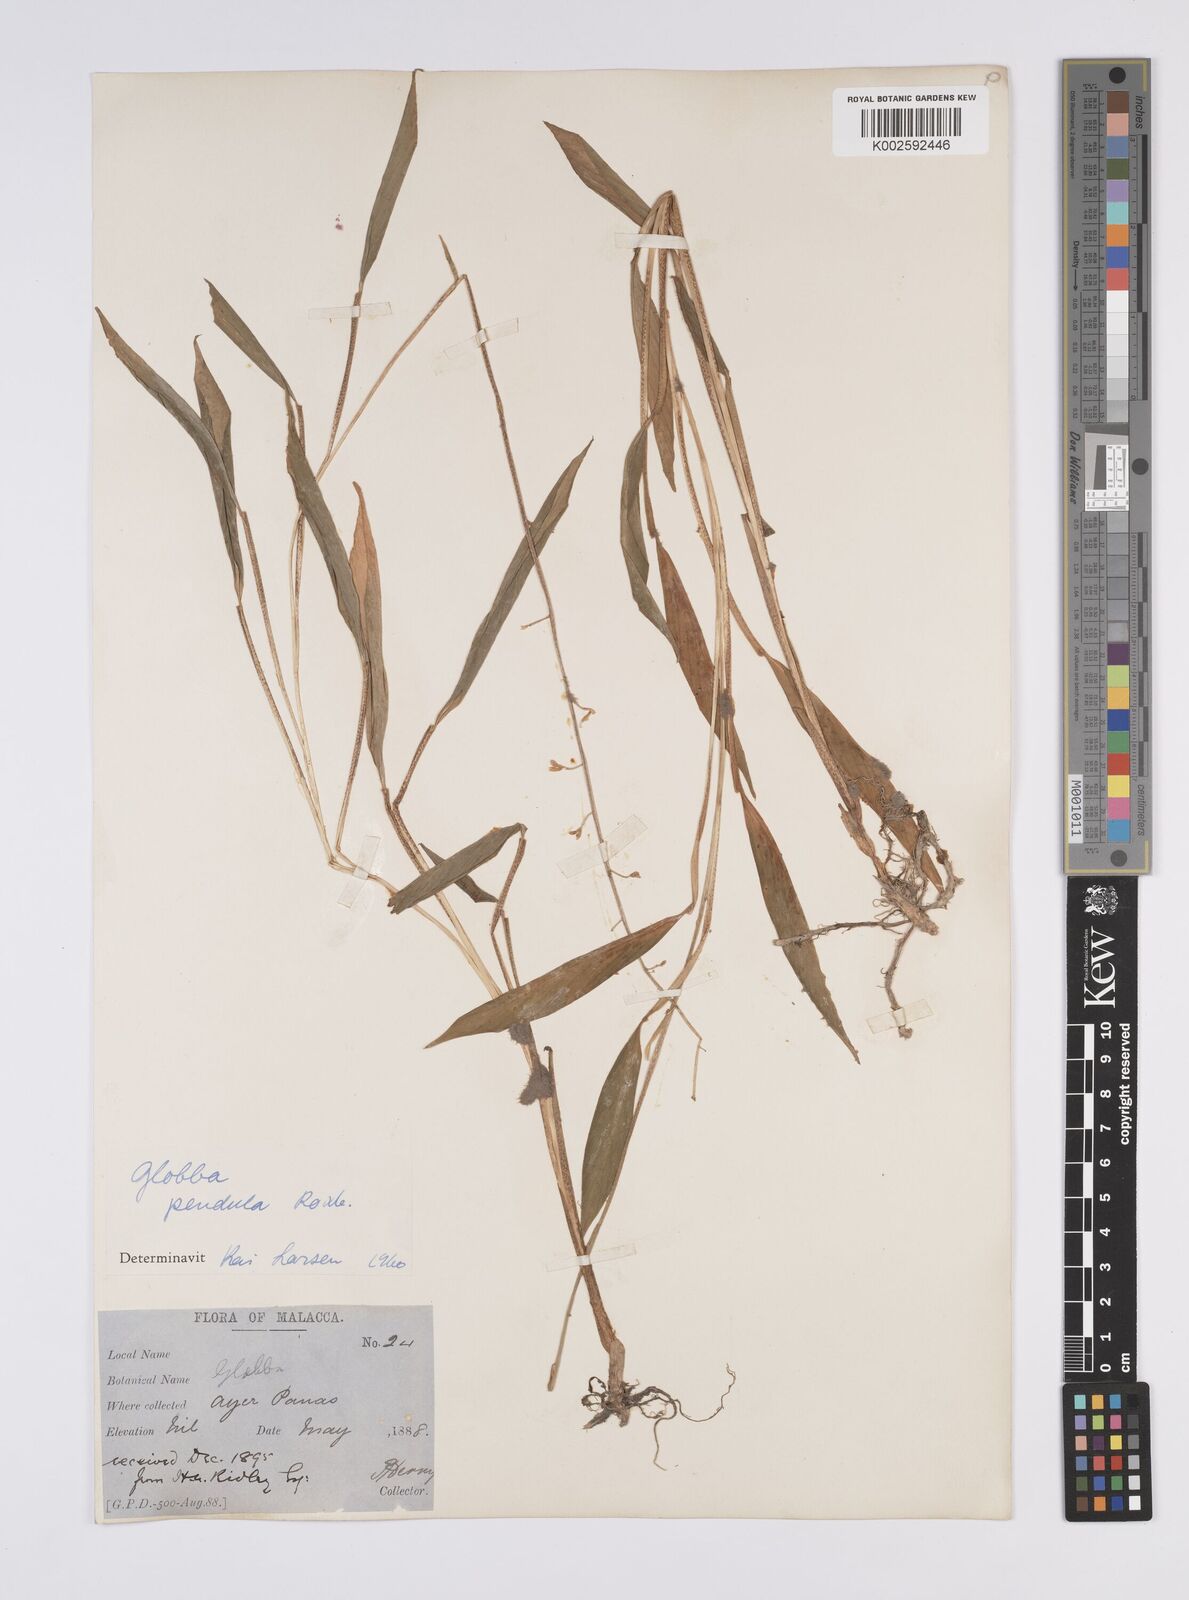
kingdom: Plantae
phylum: Tracheophyta
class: Liliopsida
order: Zingiberales
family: Zingiberaceae
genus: Globba
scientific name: Globba pendula
